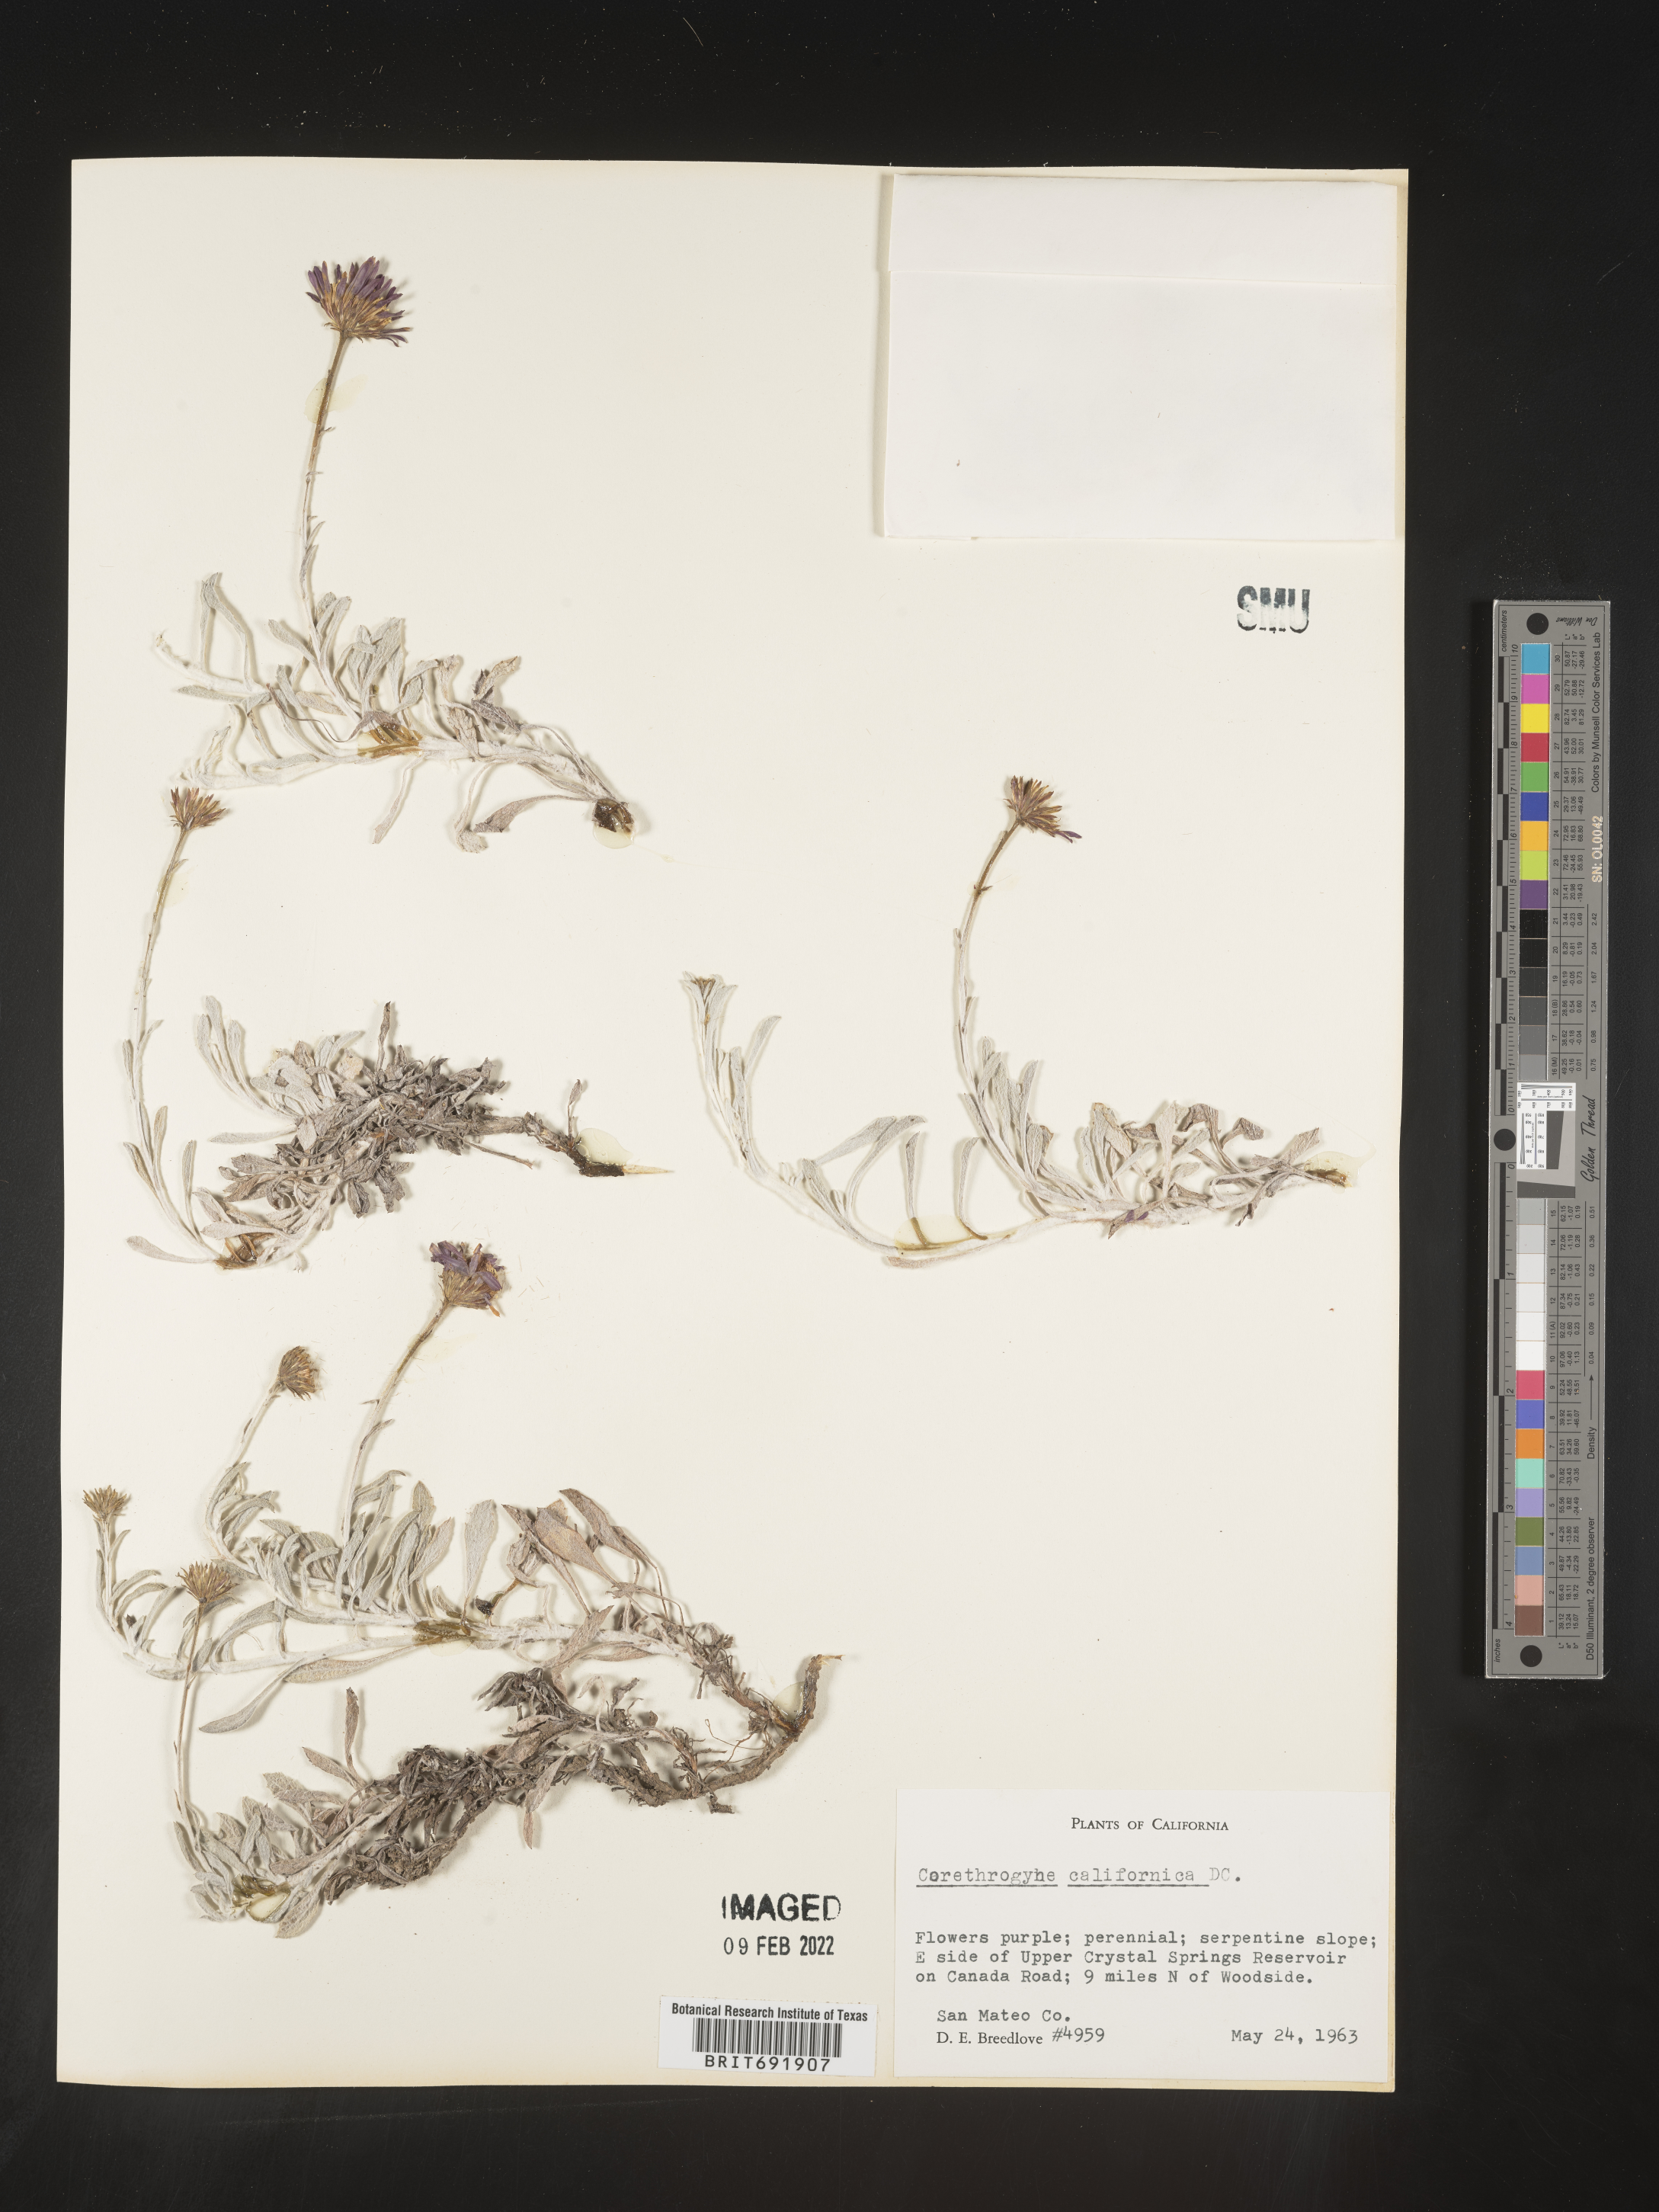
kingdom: Plantae
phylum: Tracheophyta
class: Magnoliopsida
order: Asterales
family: Asteraceae
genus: Corethrogyne
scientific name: Corethrogyne
